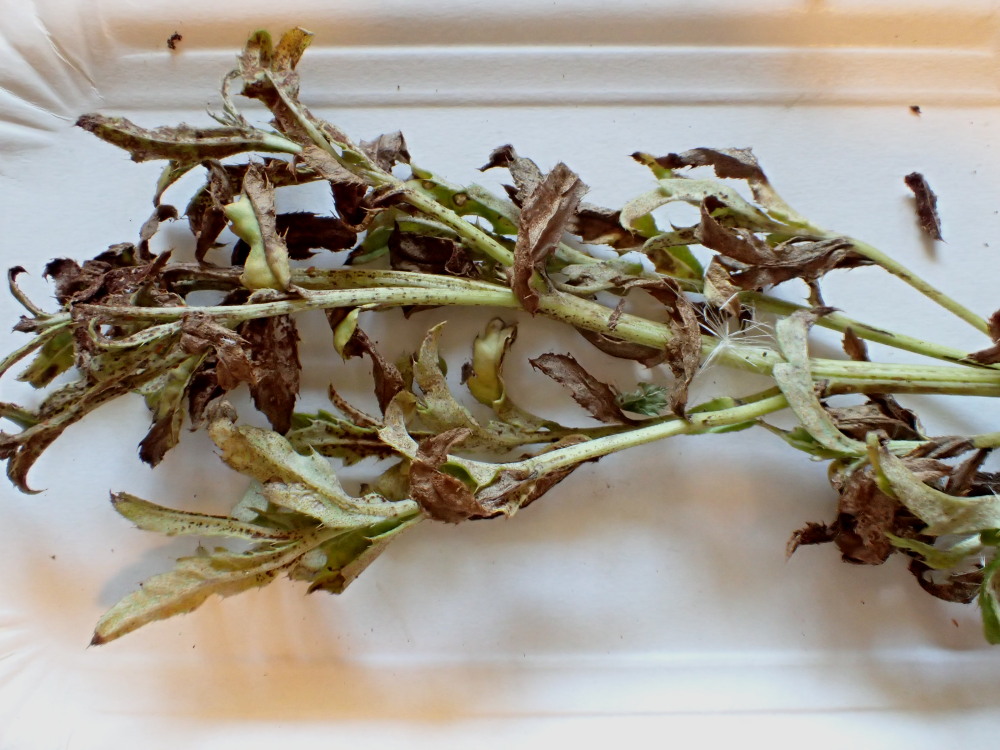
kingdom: Fungi
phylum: Basidiomycota
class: Pucciniomycetes
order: Pucciniales
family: Pucciniaceae
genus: Puccinia
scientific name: Puccinia suaveolens
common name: tidsel-tvecellerust
